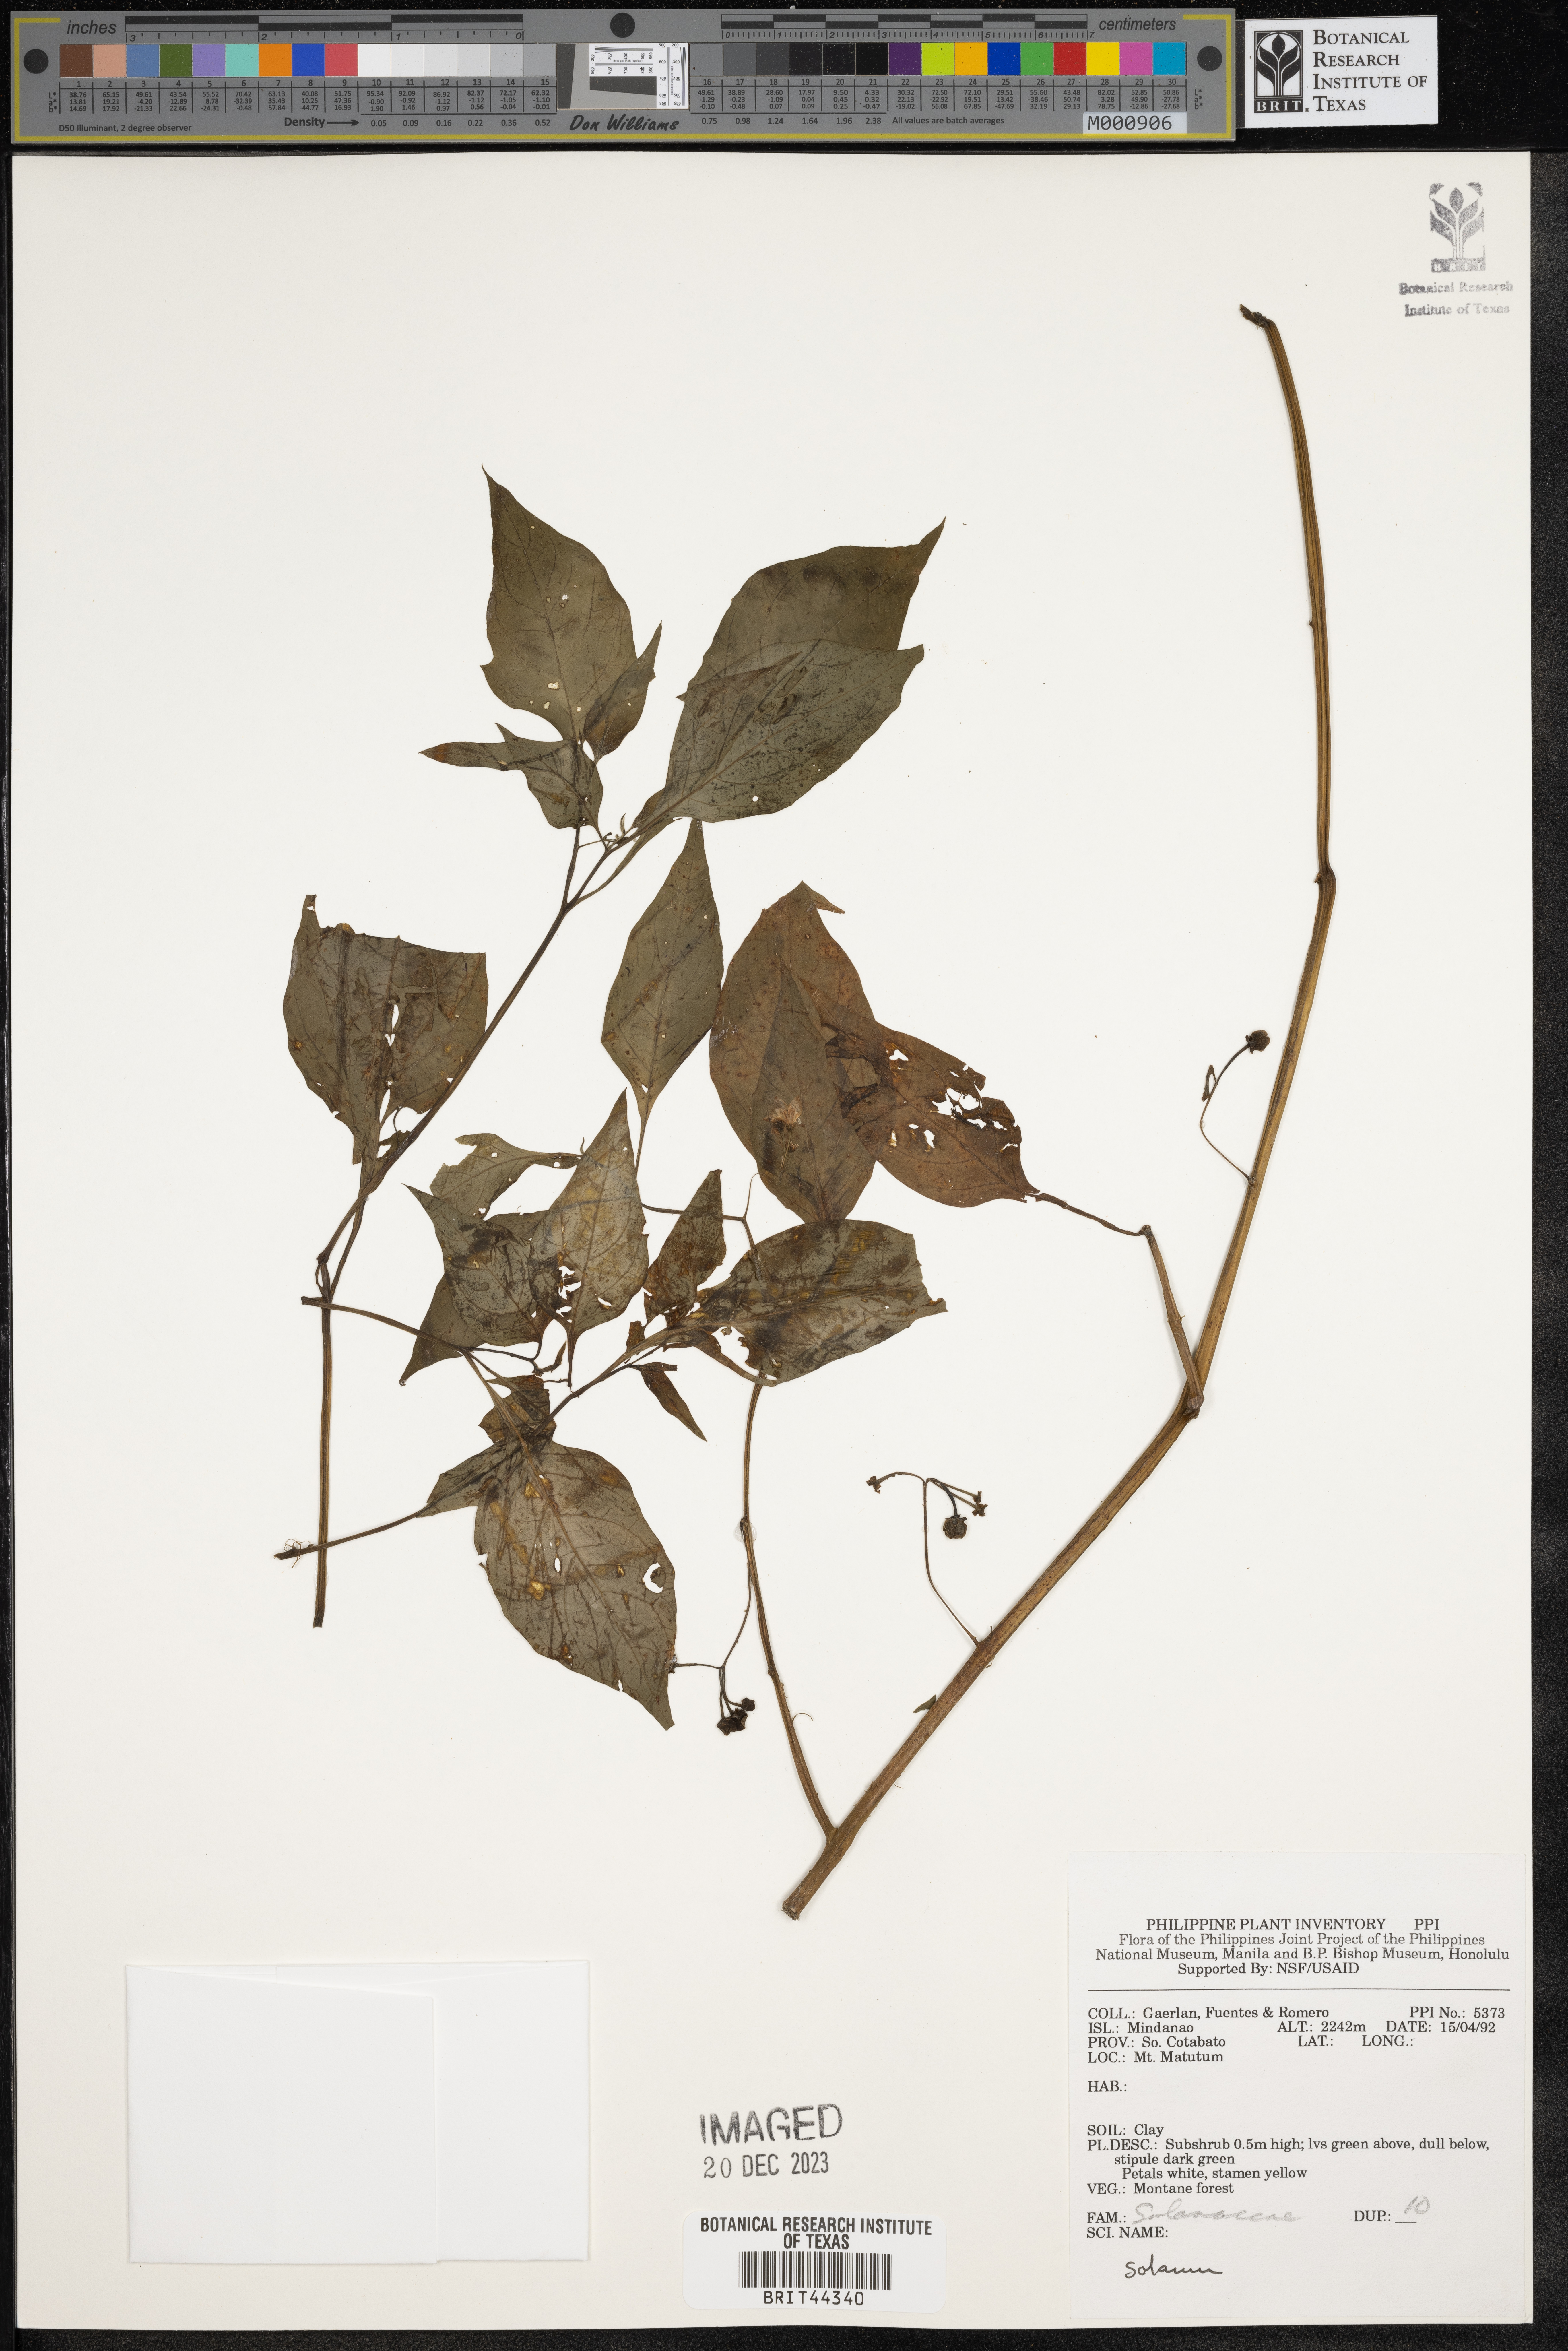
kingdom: Plantae
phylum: Tracheophyta
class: Magnoliopsida
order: Solanales
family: Solanaceae
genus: Solanum
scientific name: Solanum
